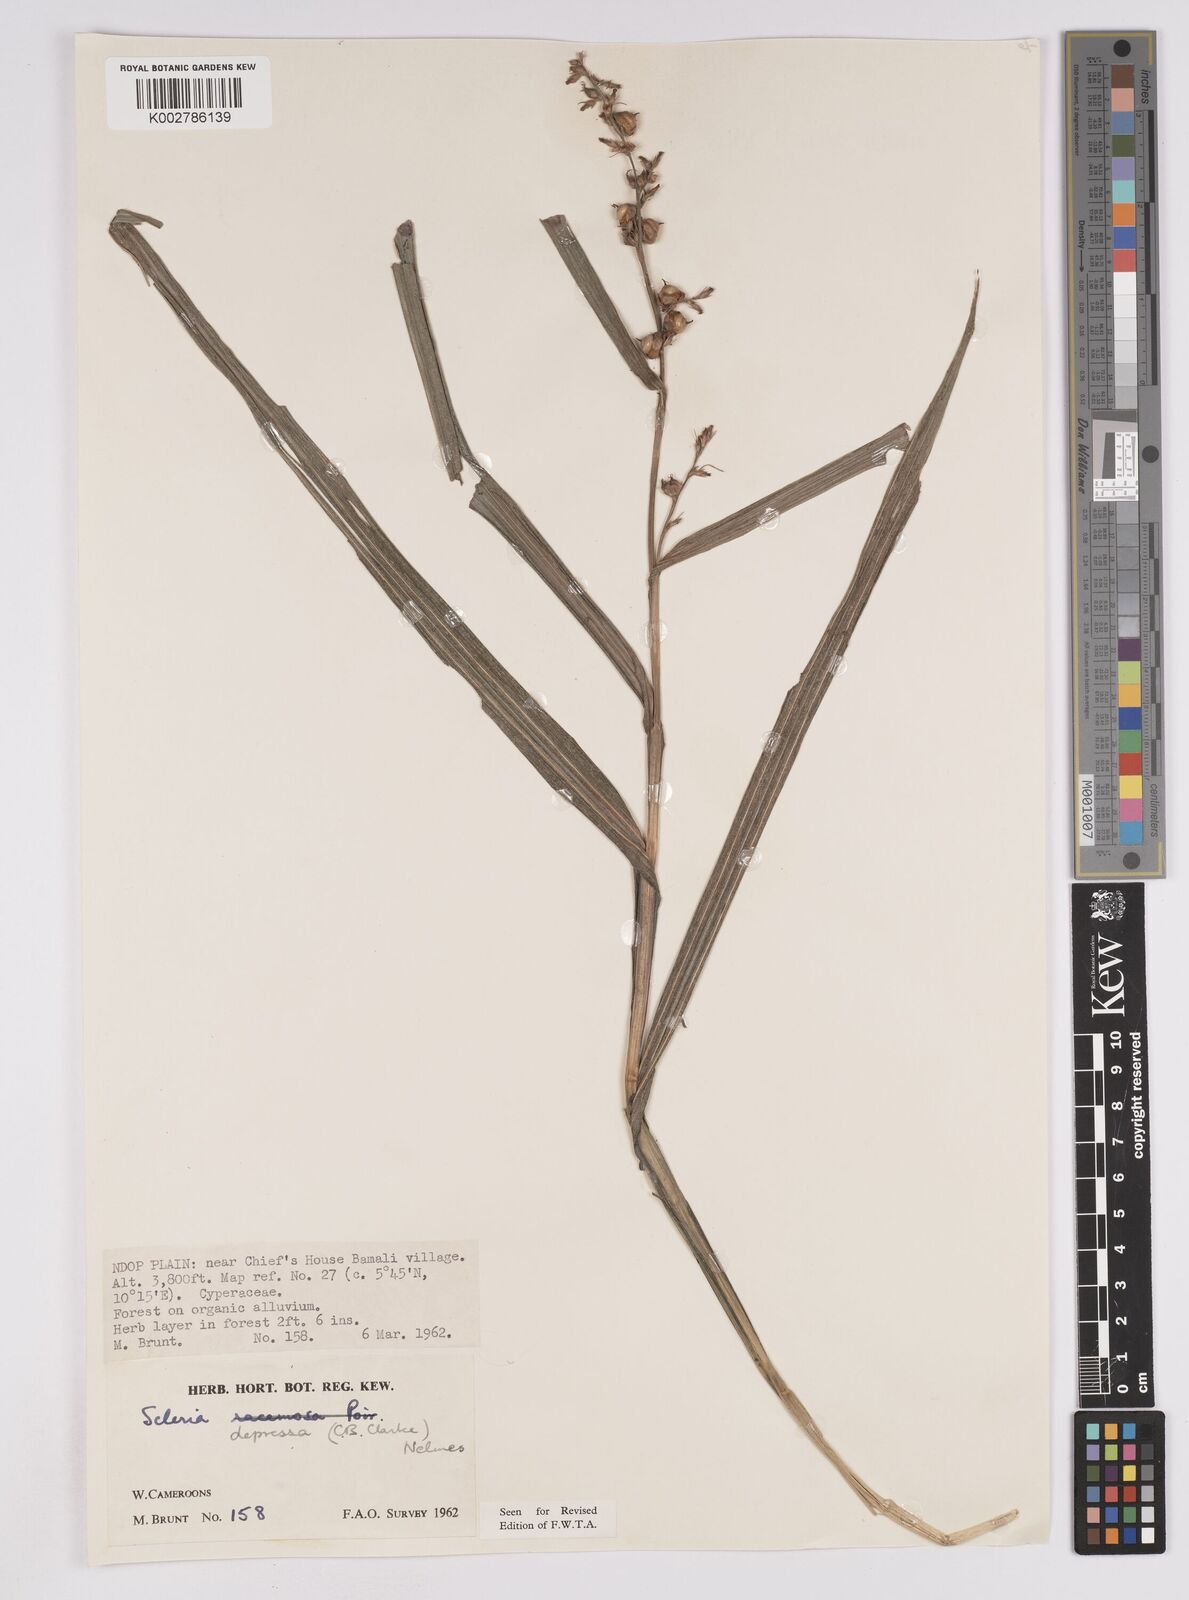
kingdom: Plantae
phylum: Tracheophyta
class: Liliopsida
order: Poales
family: Cyperaceae
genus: Scleria
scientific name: Scleria depressa
